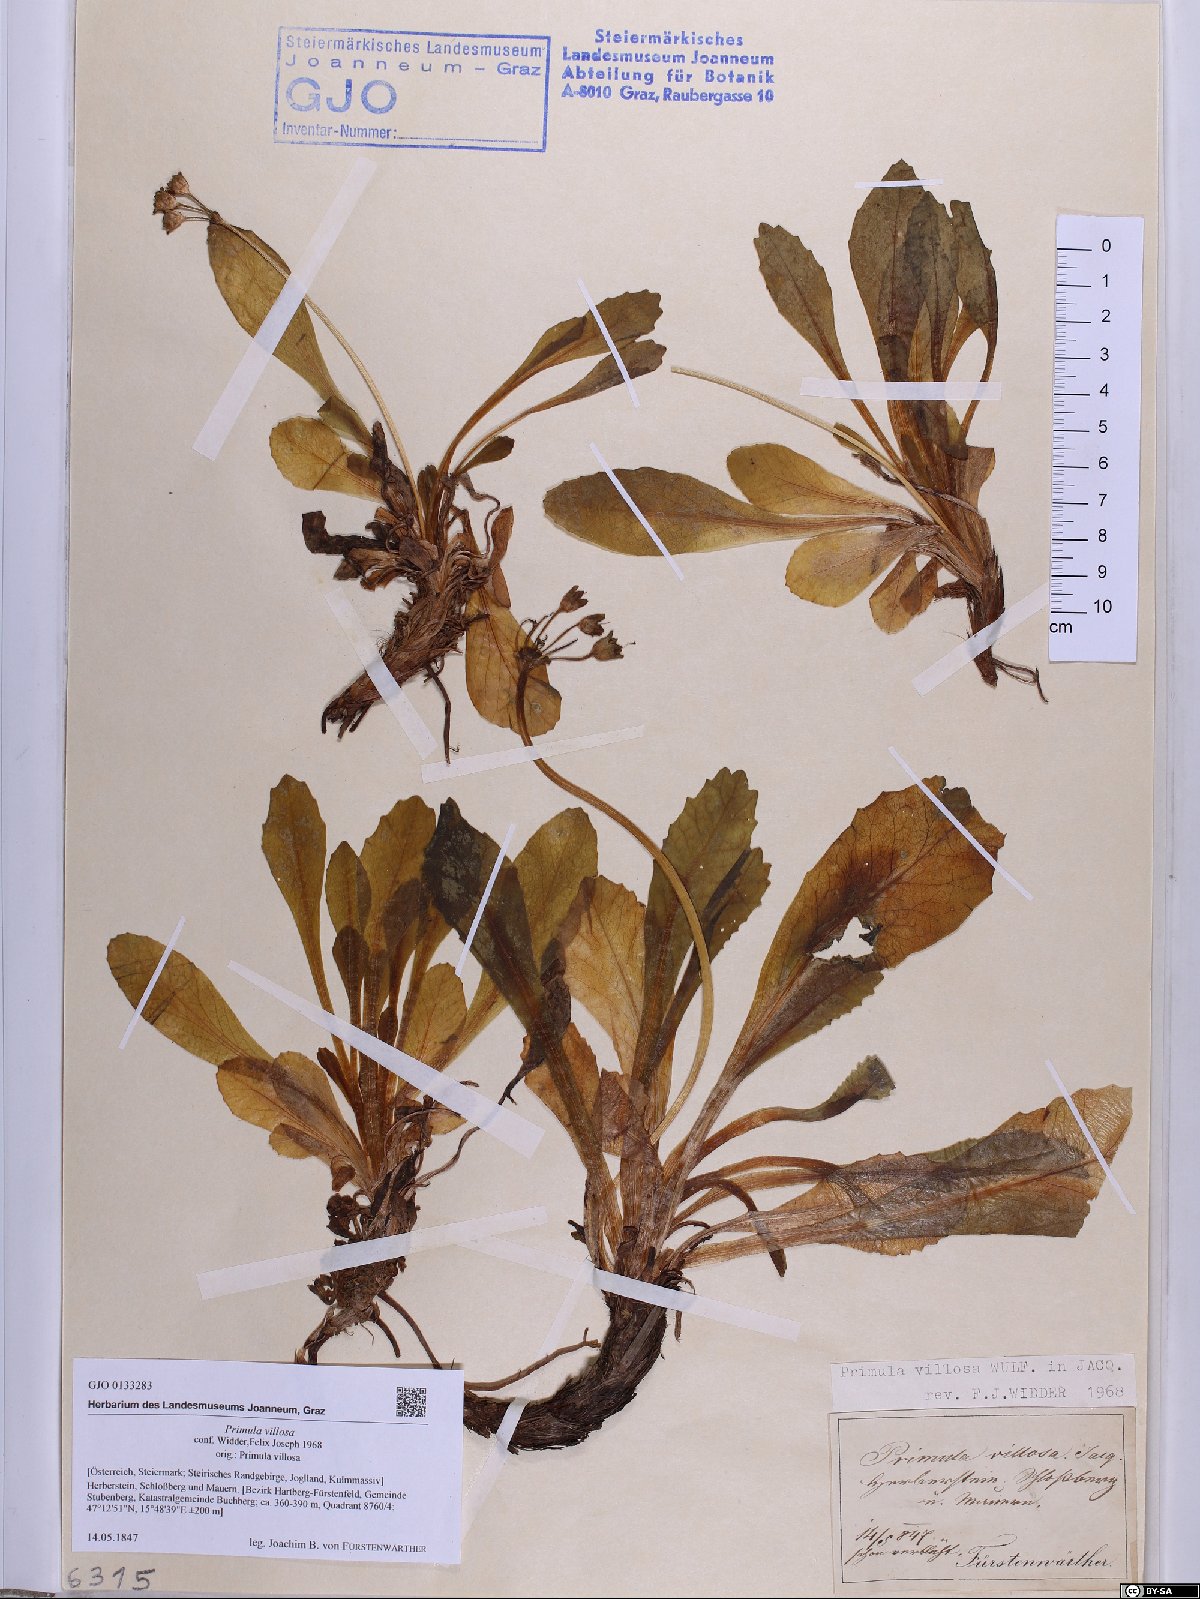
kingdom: Plantae
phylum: Tracheophyta
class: Magnoliopsida
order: Ericales
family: Primulaceae
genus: Primula
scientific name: Primula villosa
